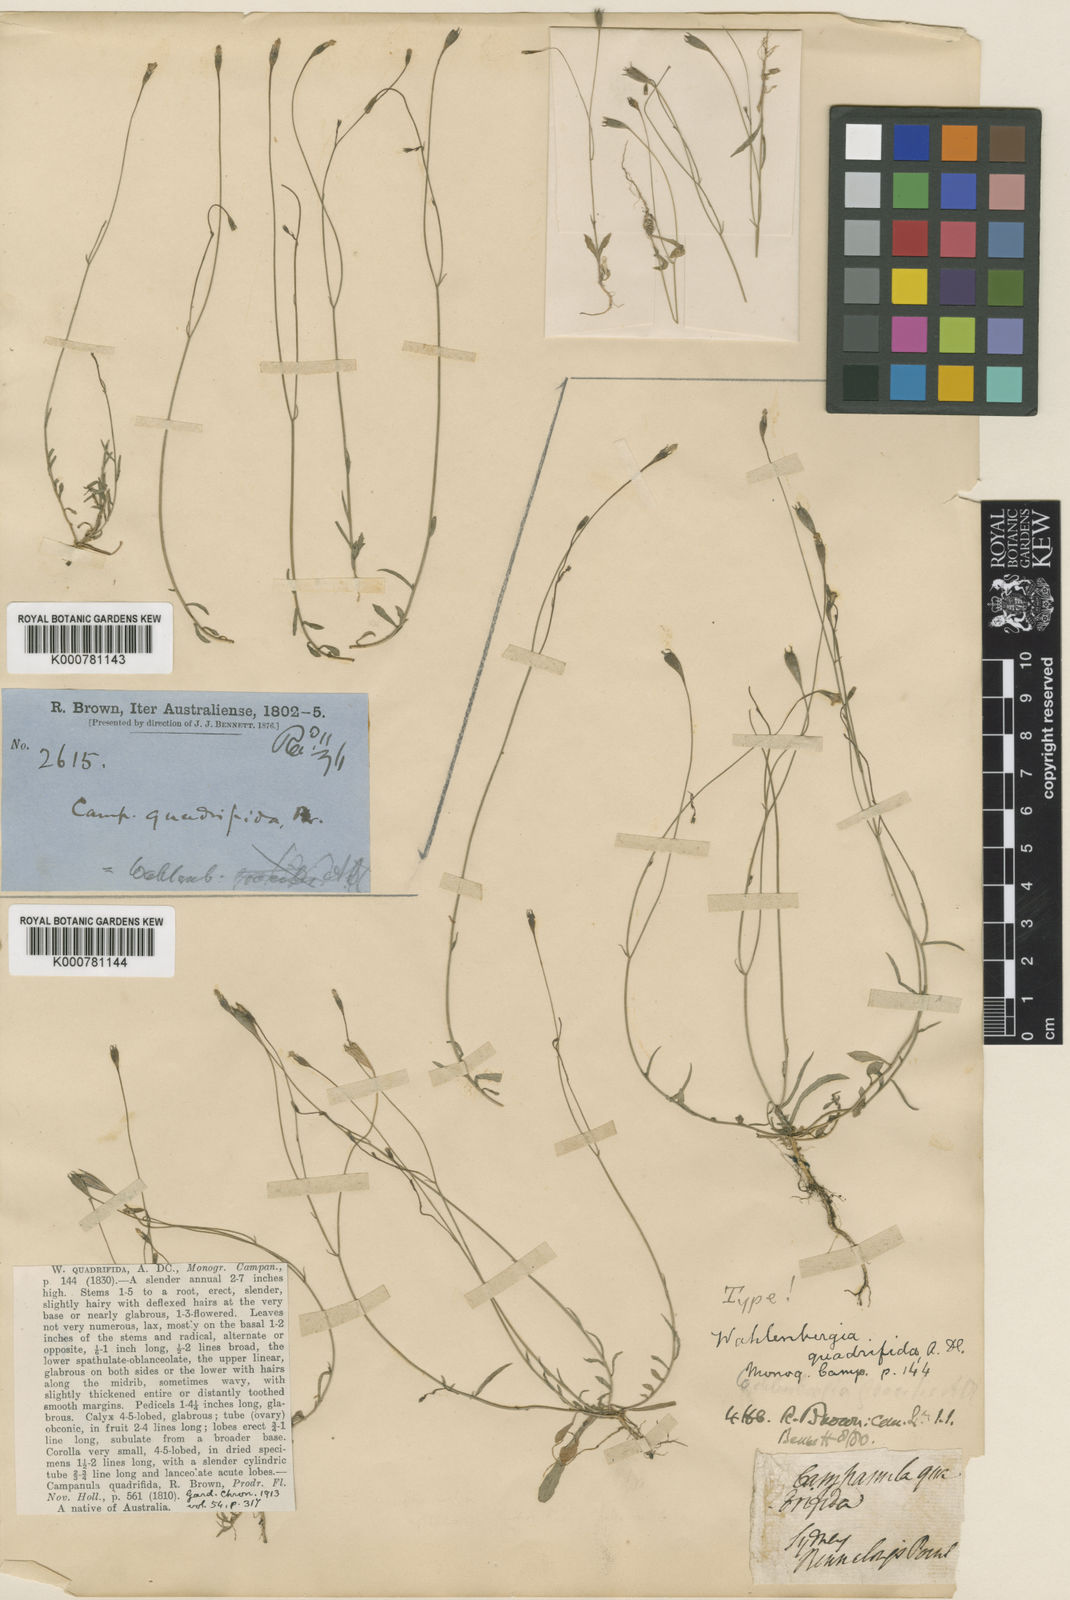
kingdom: Plantae
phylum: Tracheophyta
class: Magnoliopsida
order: Asterales
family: Campanulaceae
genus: Wahlenbergia
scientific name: Wahlenbergia gracilis
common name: Harebell
